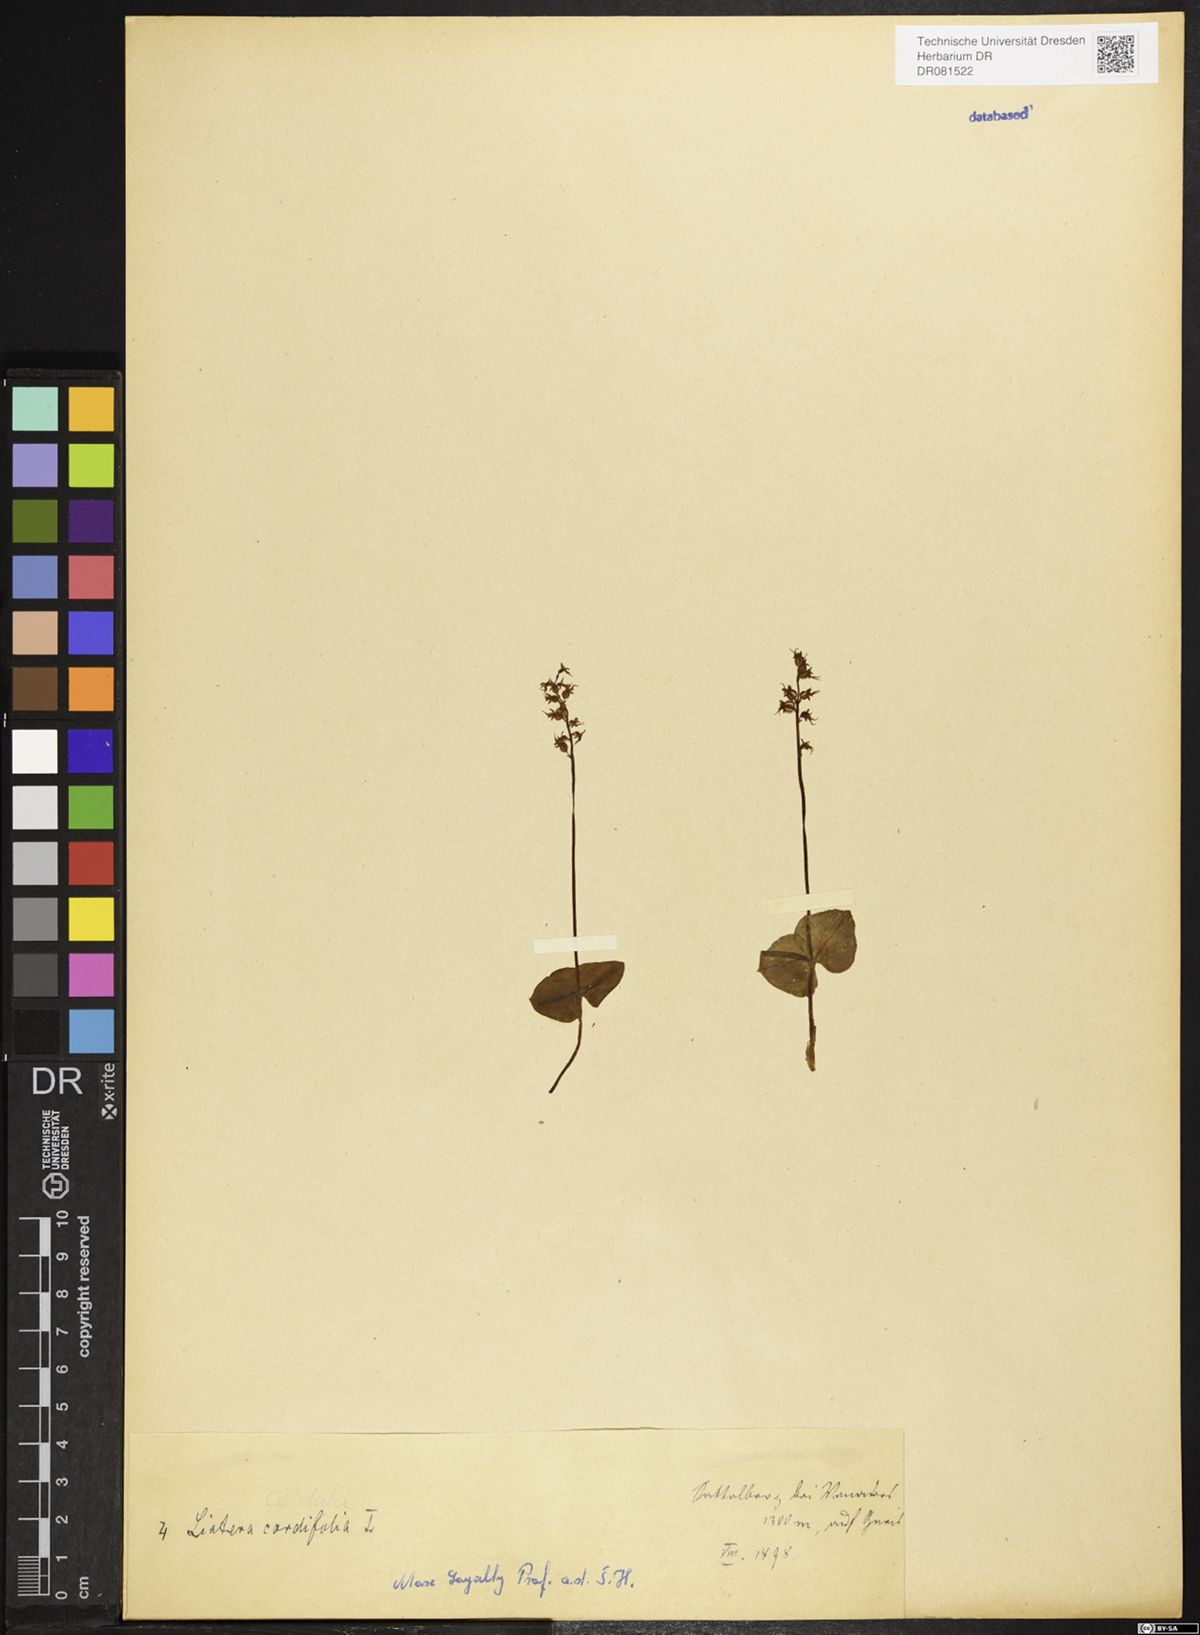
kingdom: Plantae
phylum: Tracheophyta
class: Liliopsida
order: Asparagales
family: Orchidaceae
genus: Neottia
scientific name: Neottia cordata
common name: Lesser twayblade
